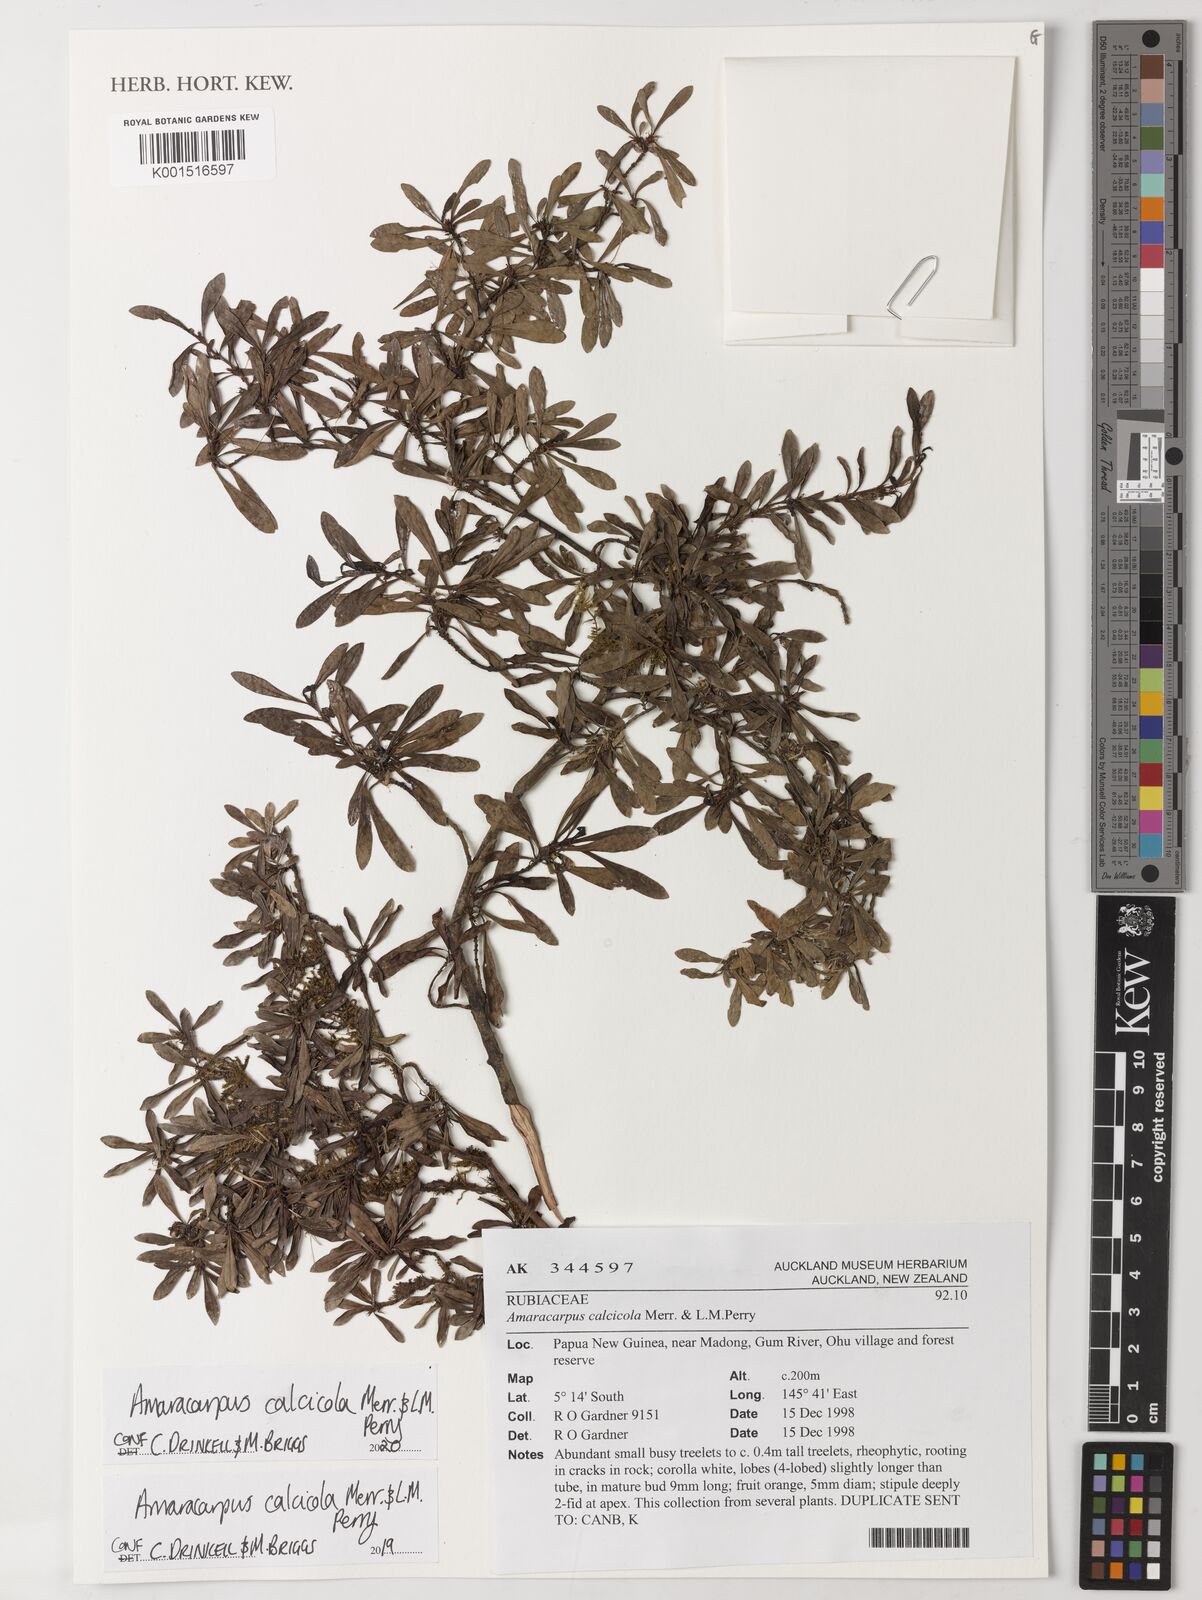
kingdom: Plantae
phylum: Tracheophyta
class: Magnoliopsida
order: Gentianales
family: Rubiaceae
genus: Amaracarpus
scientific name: Amaracarpus calcicola
